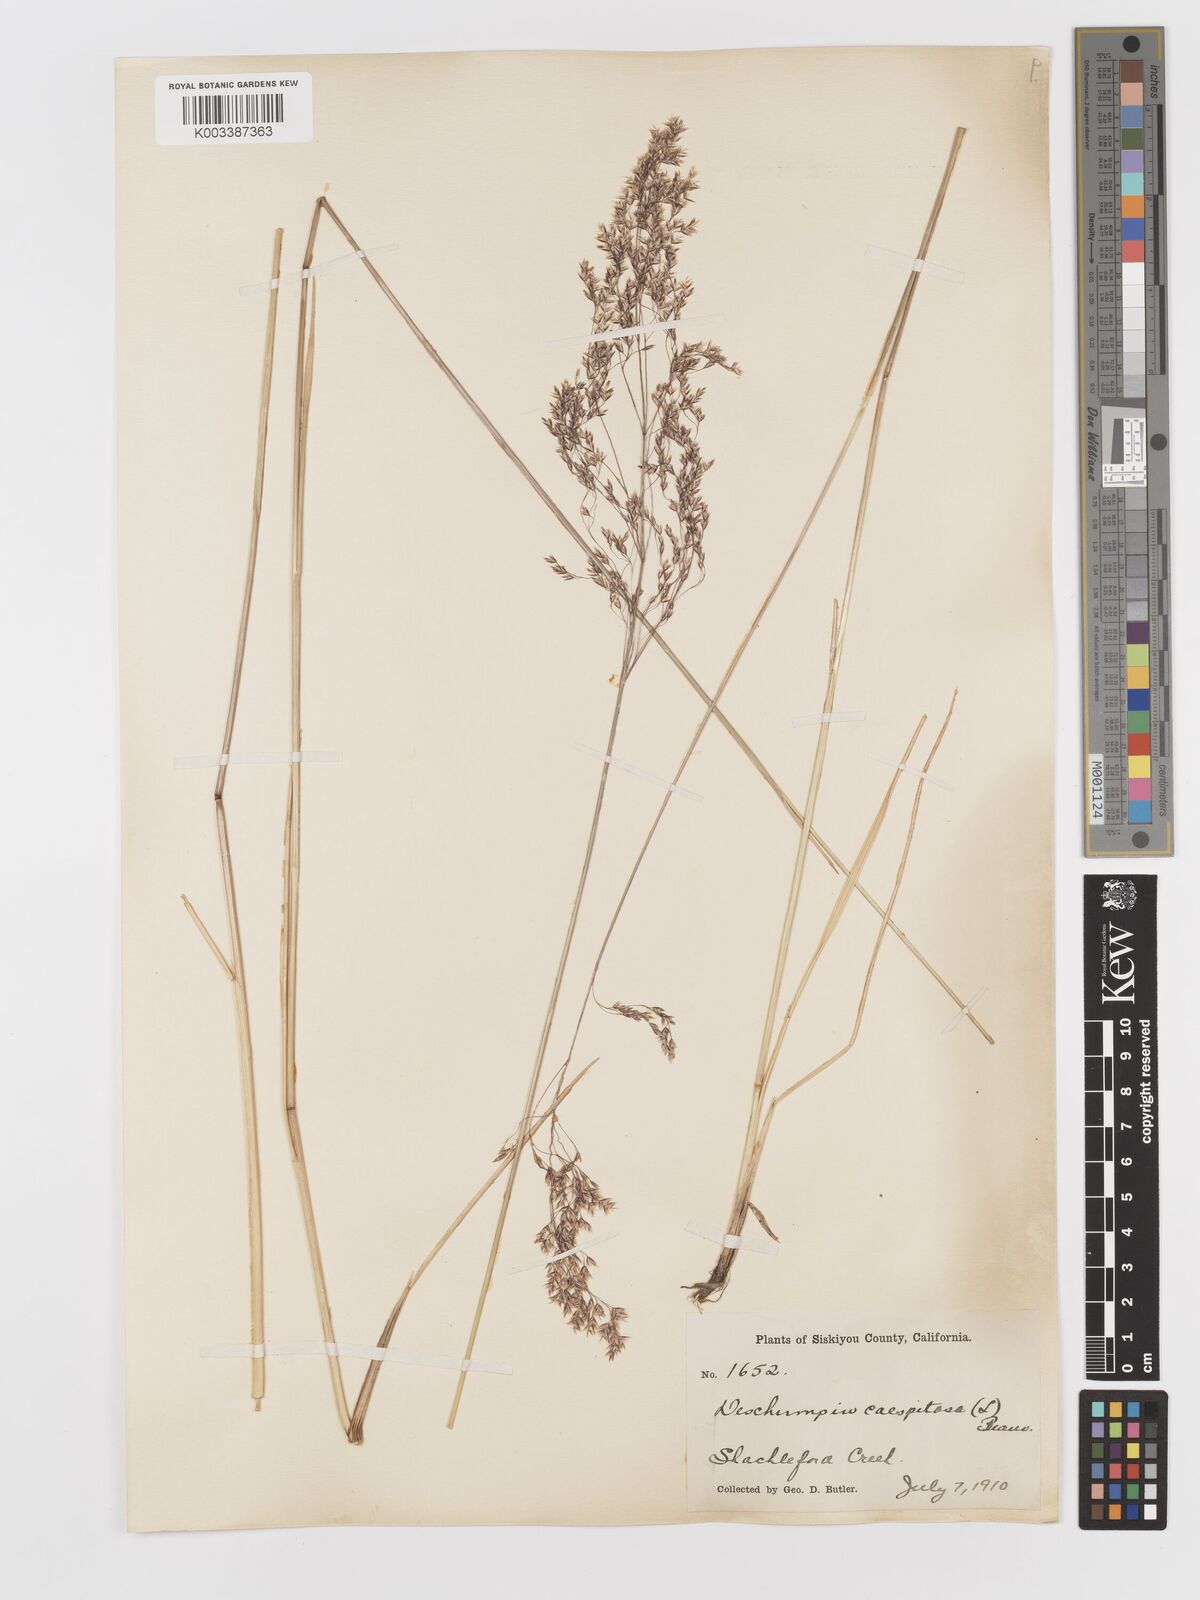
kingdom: Plantae
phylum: Tracheophyta
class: Liliopsida
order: Poales
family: Poaceae
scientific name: Poaceae
